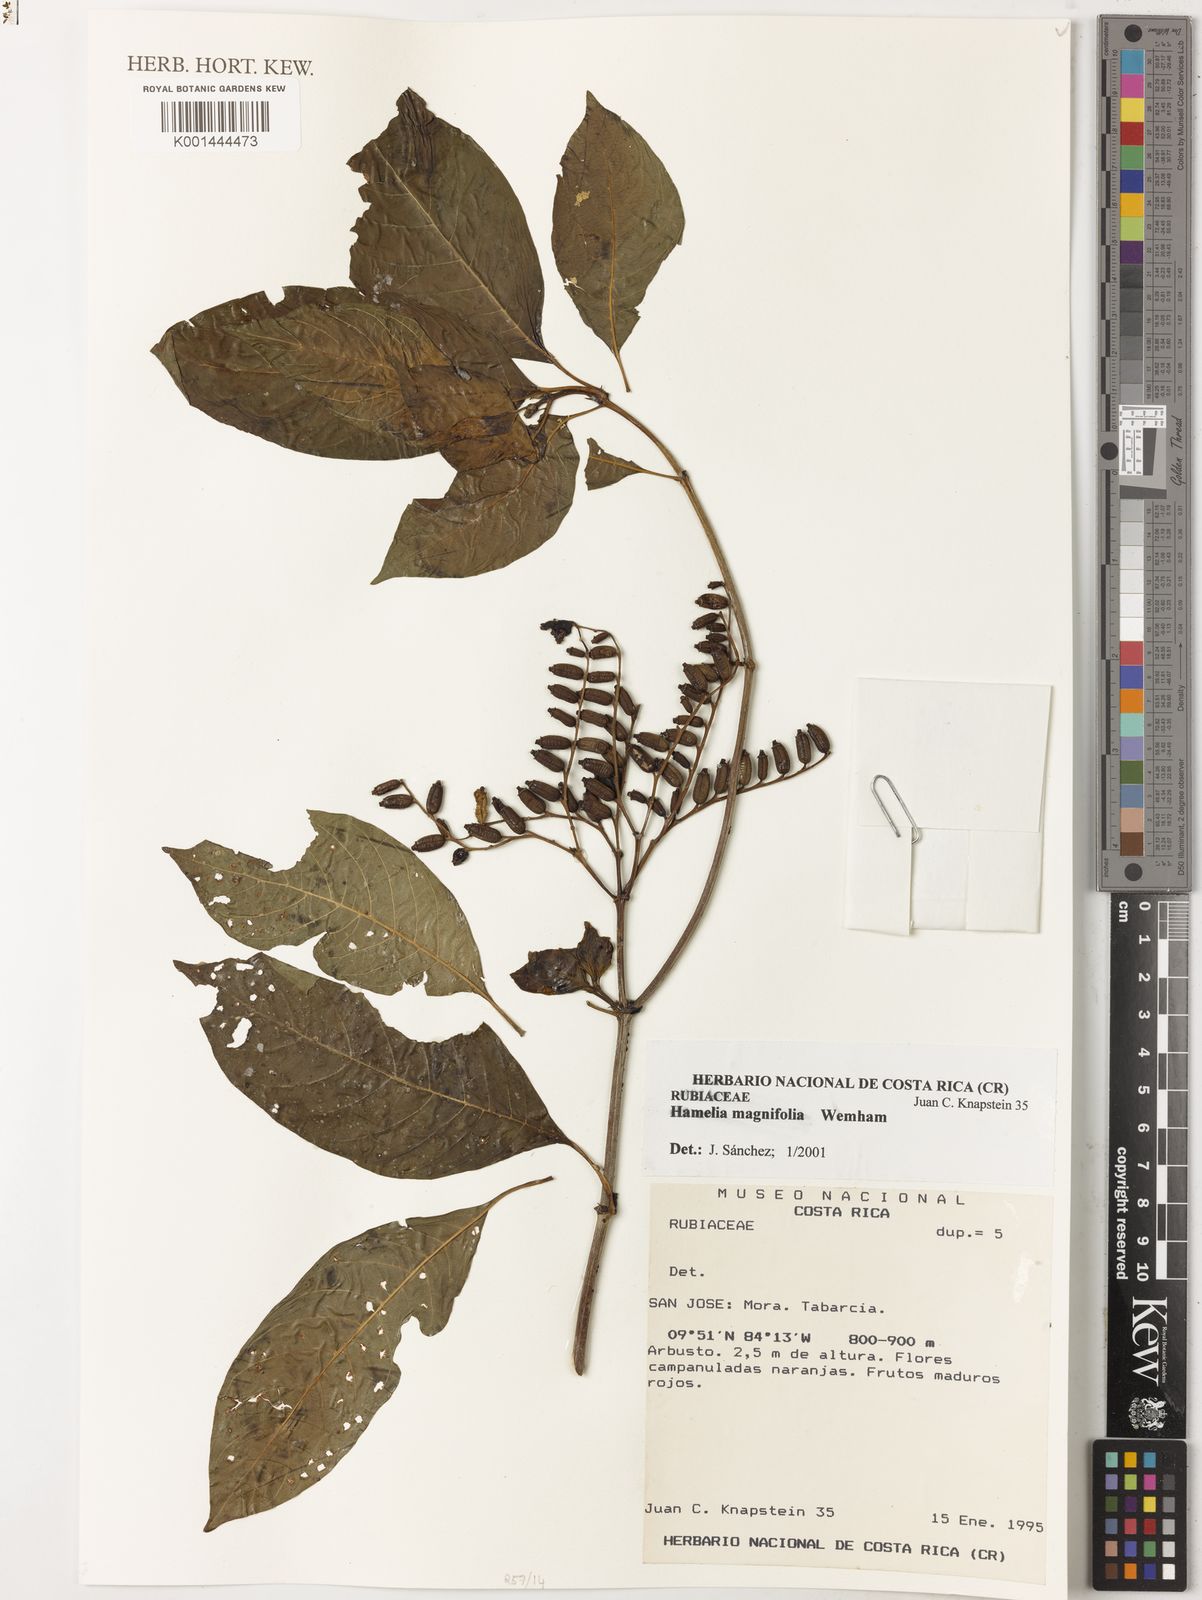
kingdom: Plantae
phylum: Tracheophyta
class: Magnoliopsida
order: Gentianales
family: Rubiaceae
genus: Hamelia
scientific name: Hamelia magnifolia
